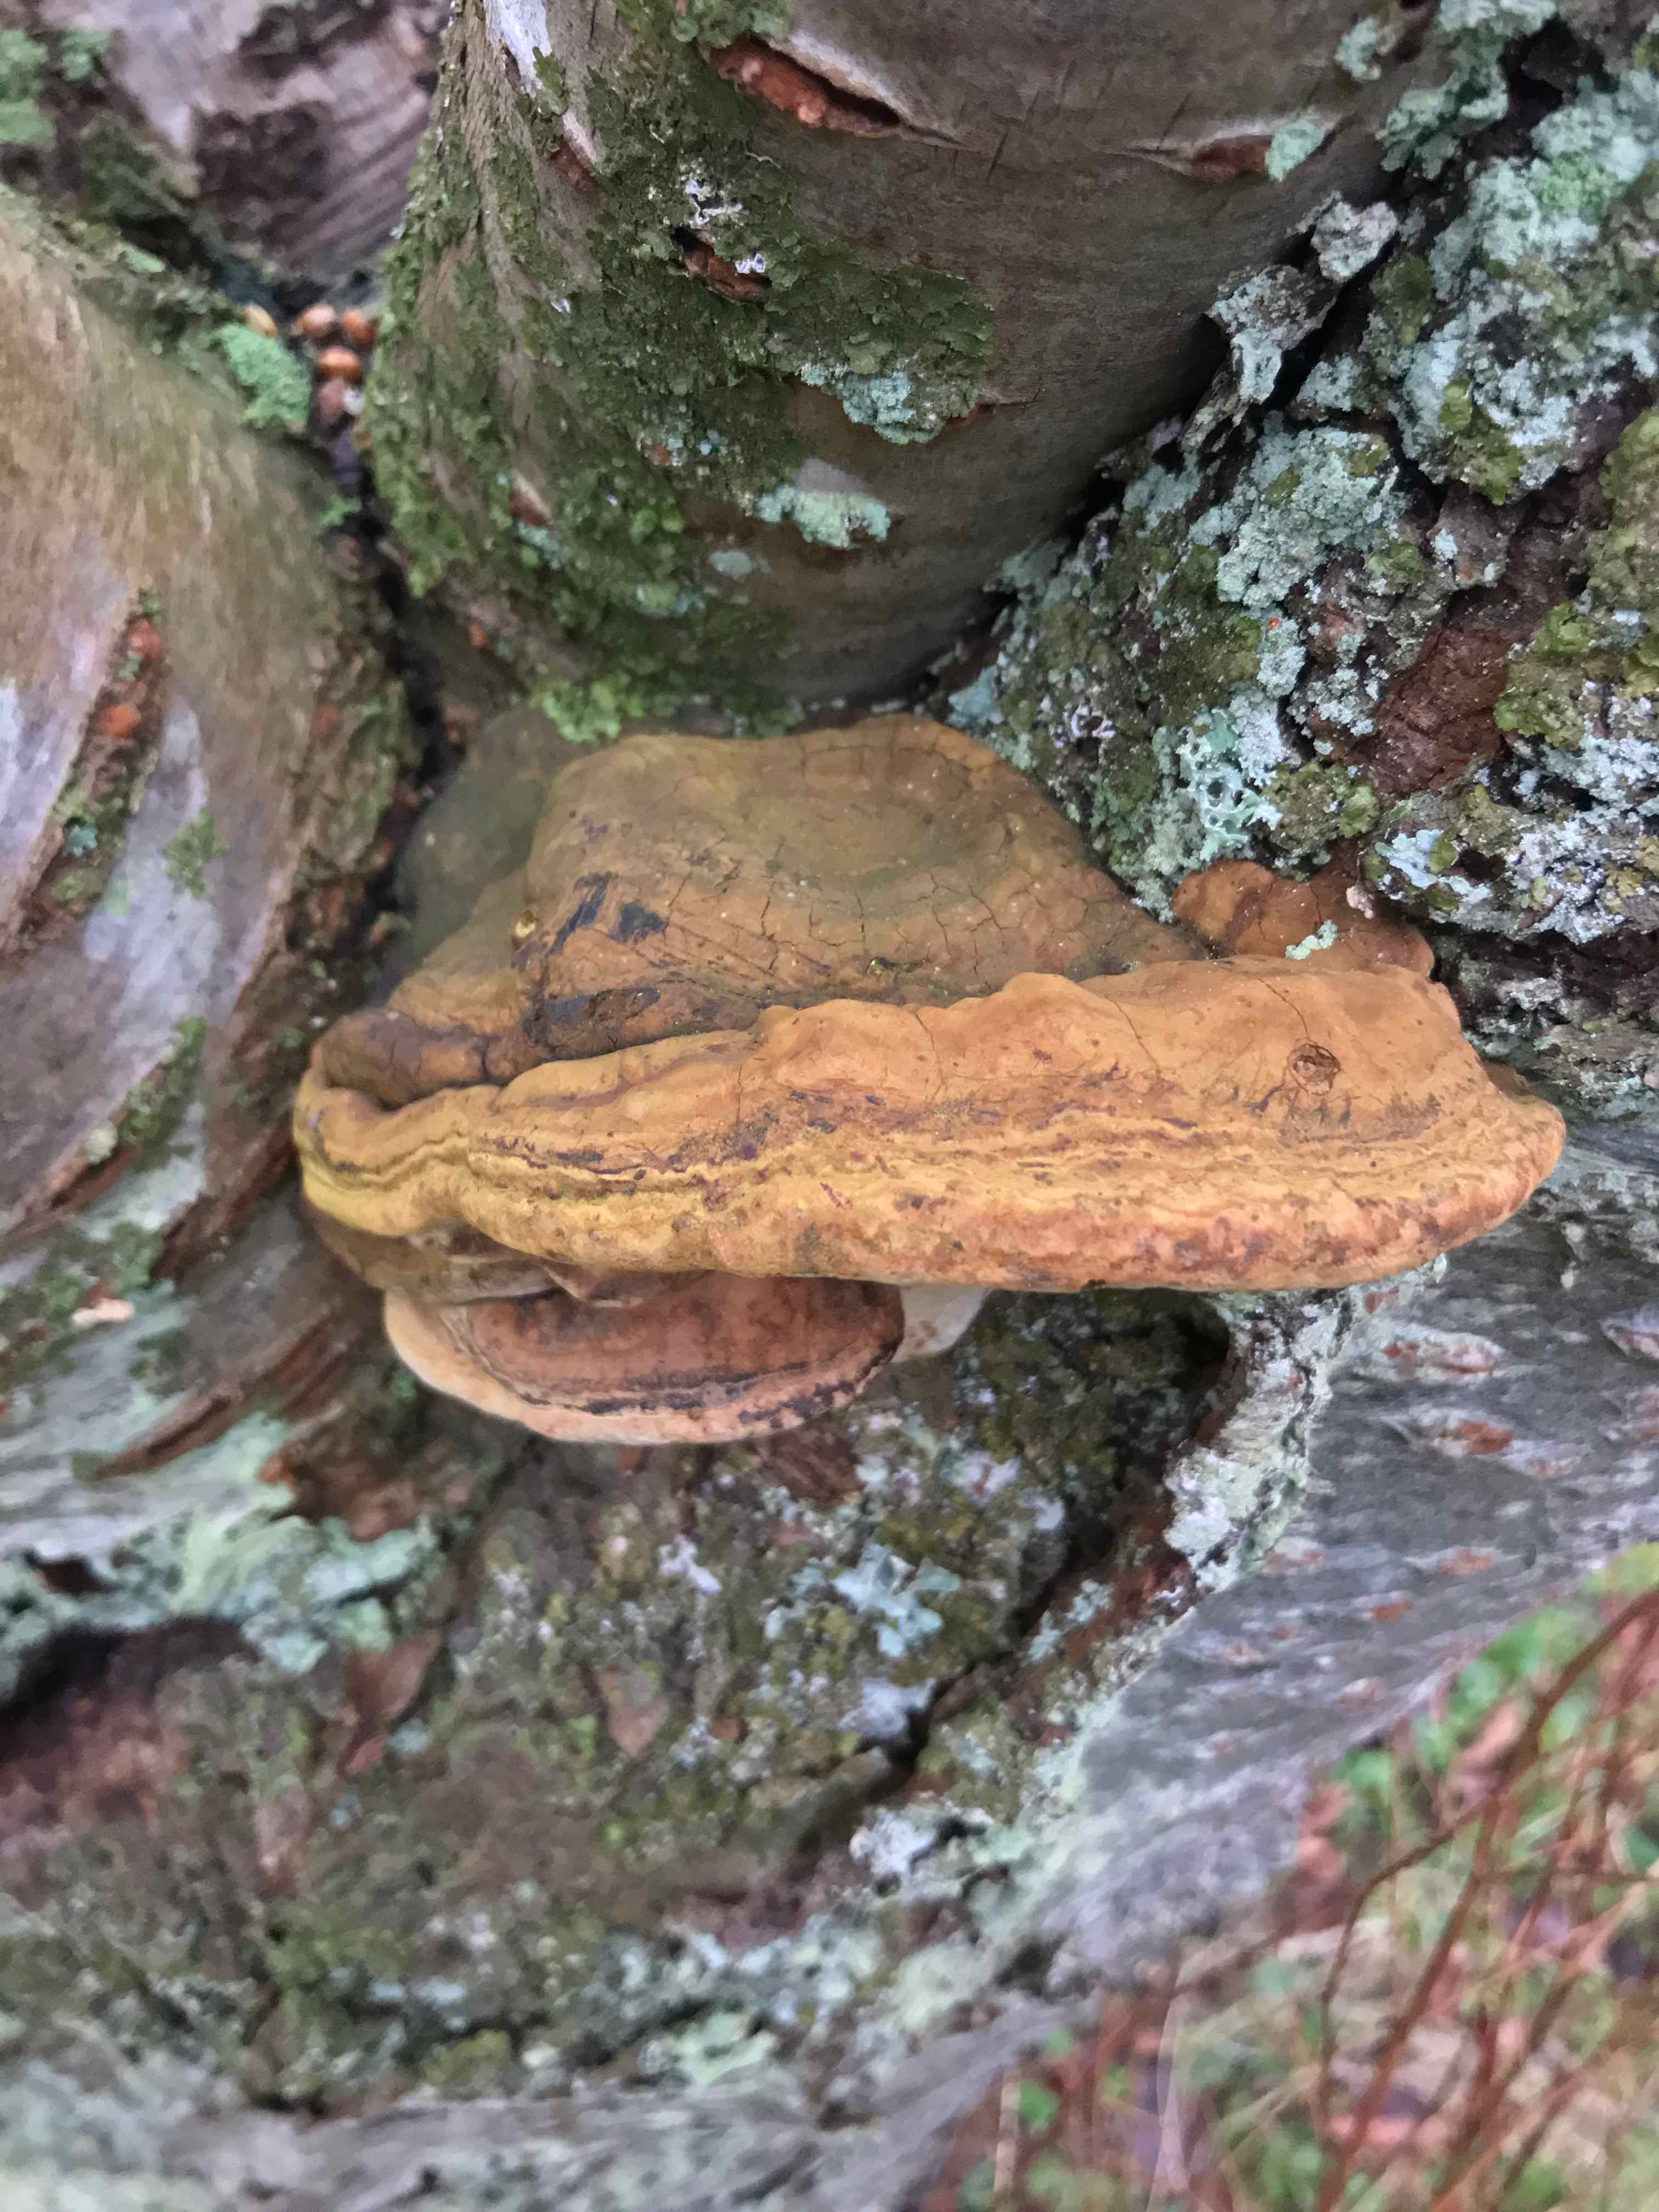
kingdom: Fungi
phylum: Basidiomycota
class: Agaricomycetes
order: Hymenochaetales
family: Hymenochaetaceae
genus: Phellinus
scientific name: Phellinus pomaceus
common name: blomme-ildporesvamp
